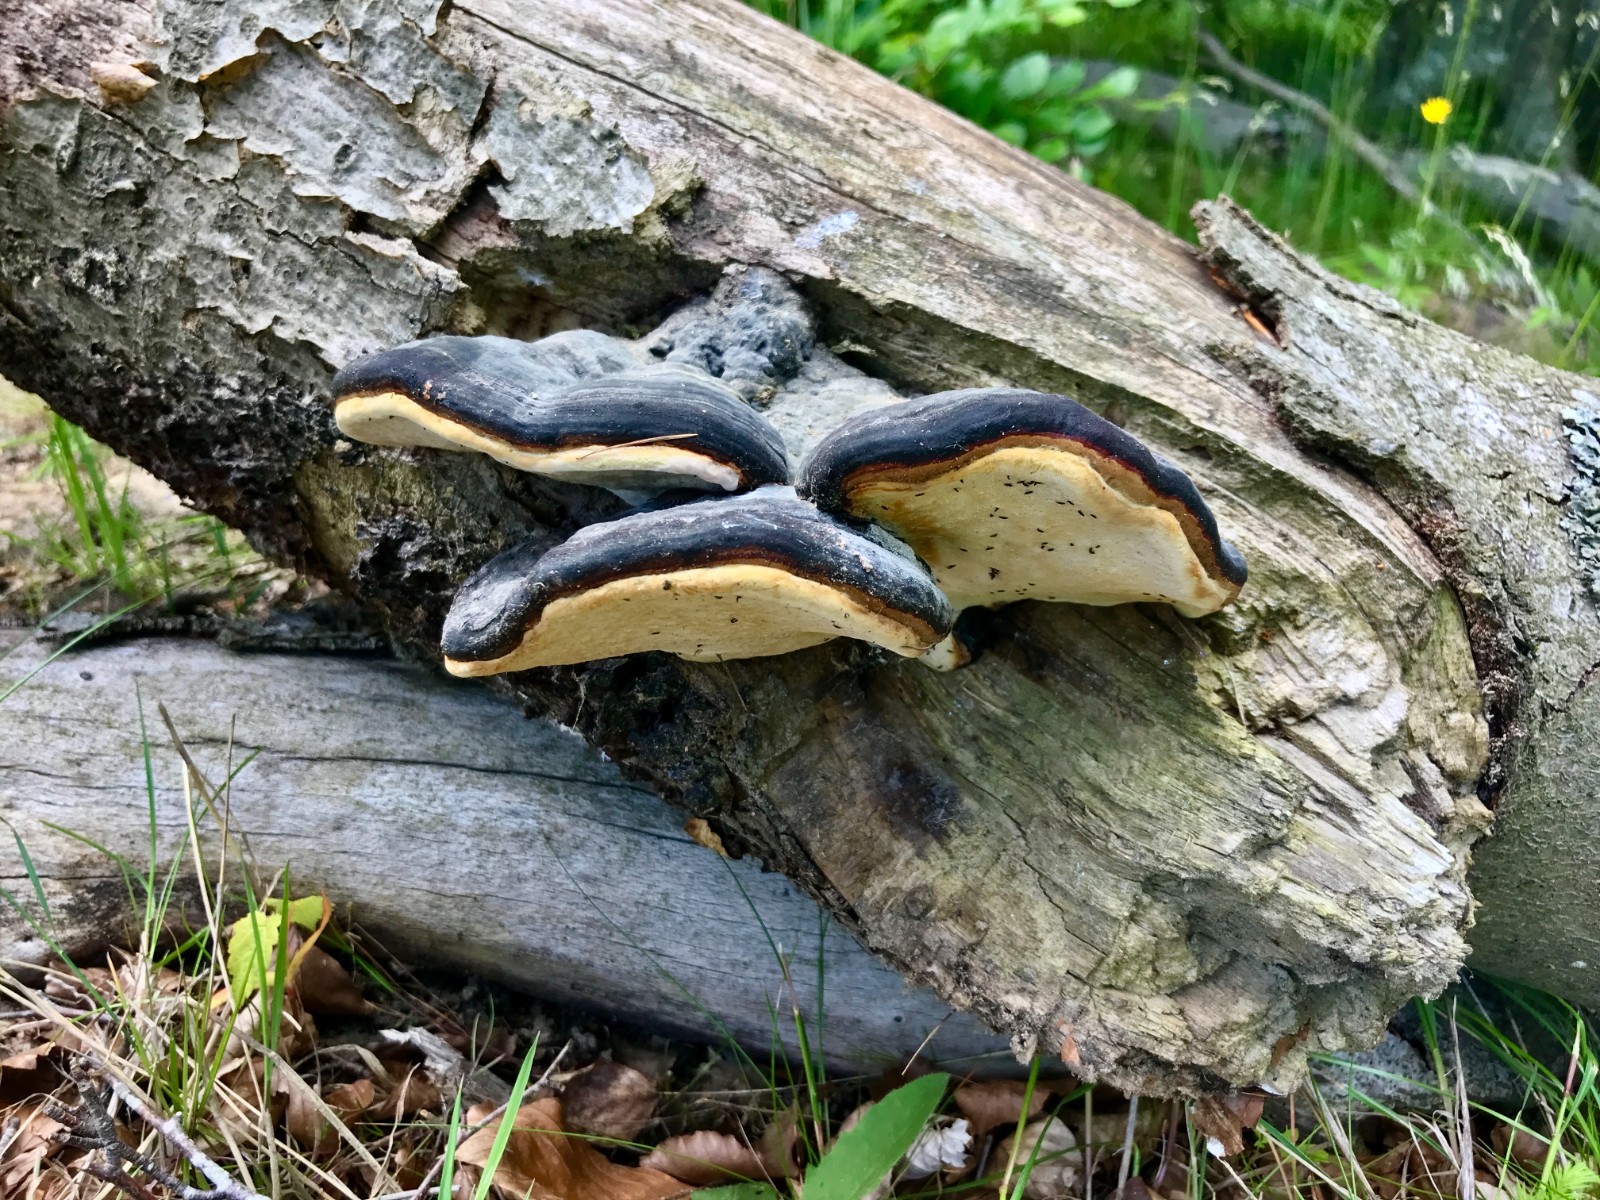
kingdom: Fungi
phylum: Basidiomycota
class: Agaricomycetes
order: Polyporales
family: Ischnodermataceae
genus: Ischnoderma
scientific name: Ischnoderma resinosum
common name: løv-tjæreporesvamp
